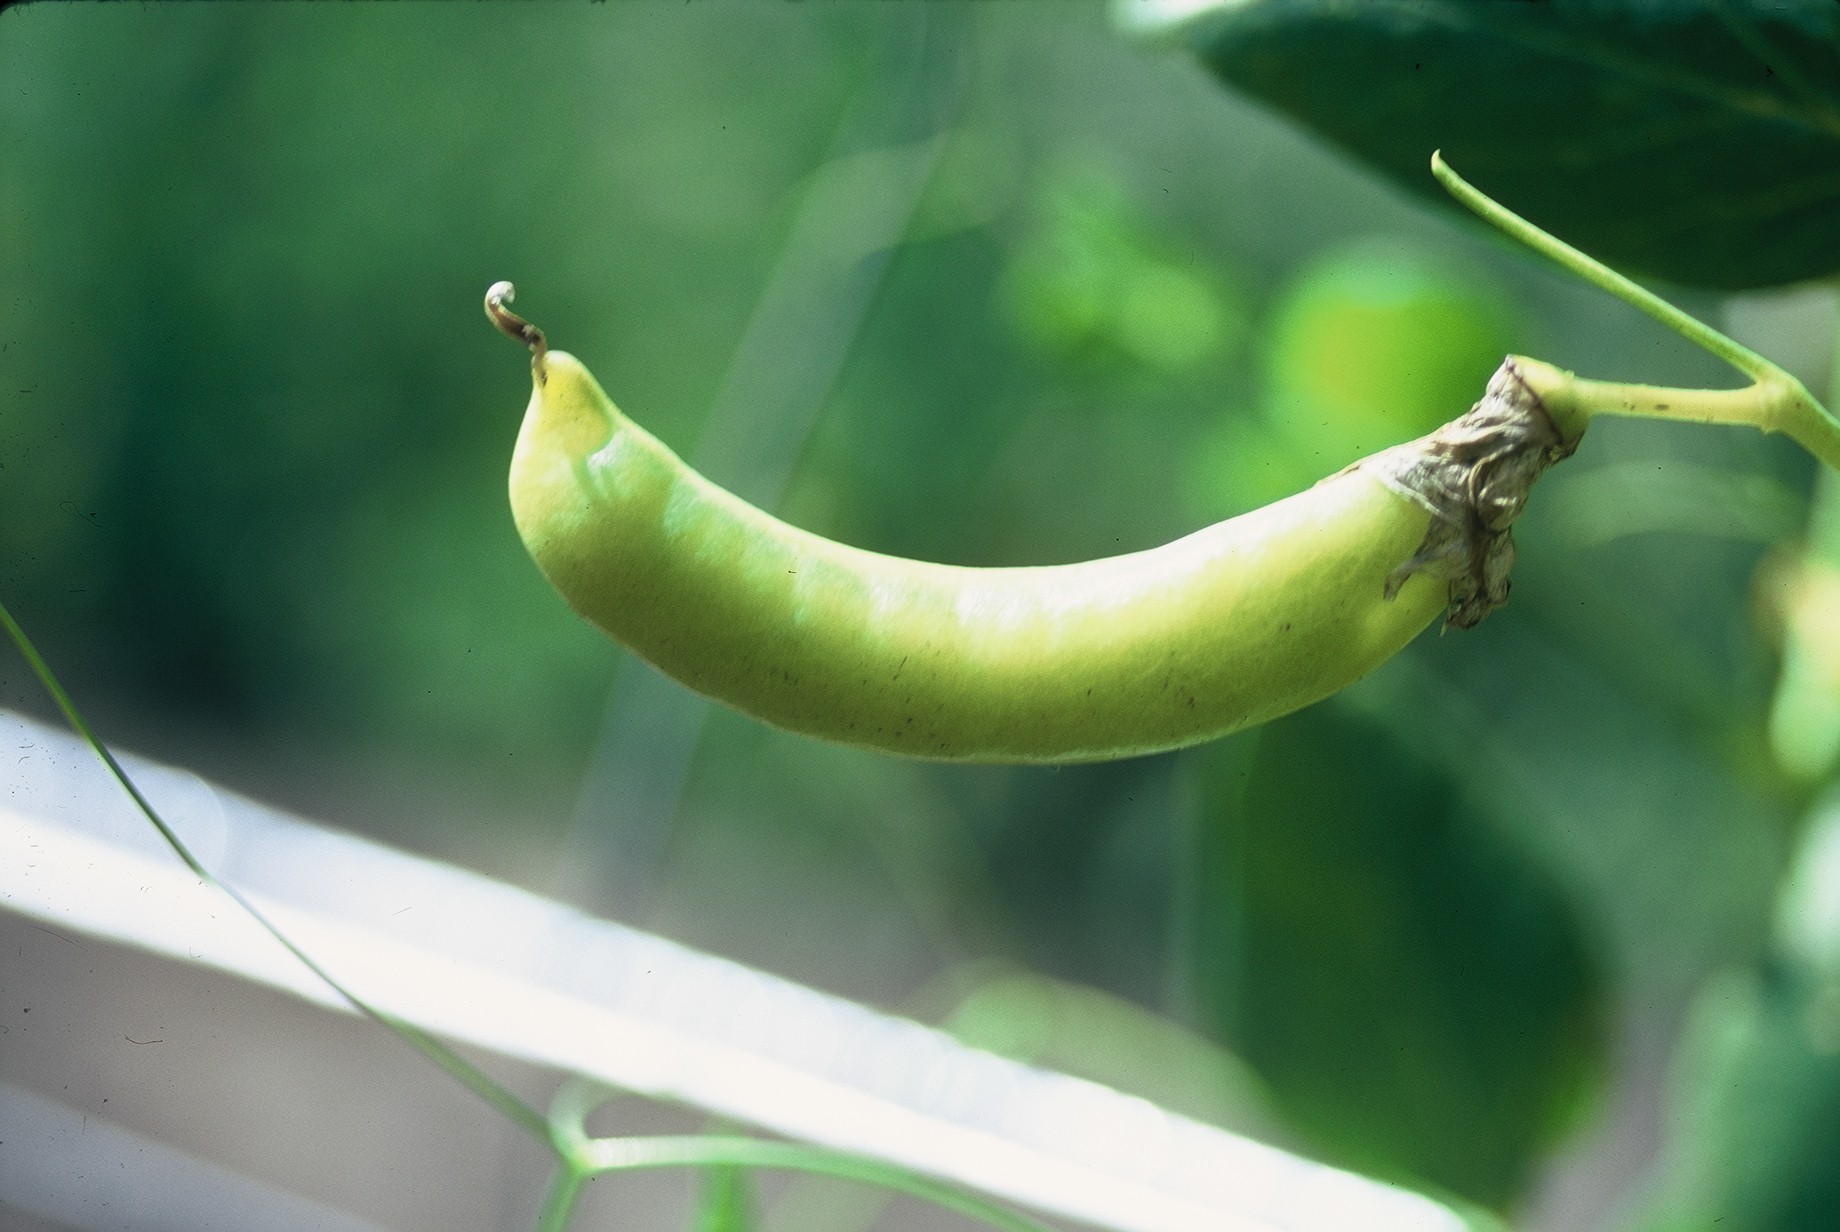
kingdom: Plantae
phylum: Tracheophyta
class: Magnoliopsida
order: Fabales
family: Fabaceae
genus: Lathyrus
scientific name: Lathyrus oleraceus
